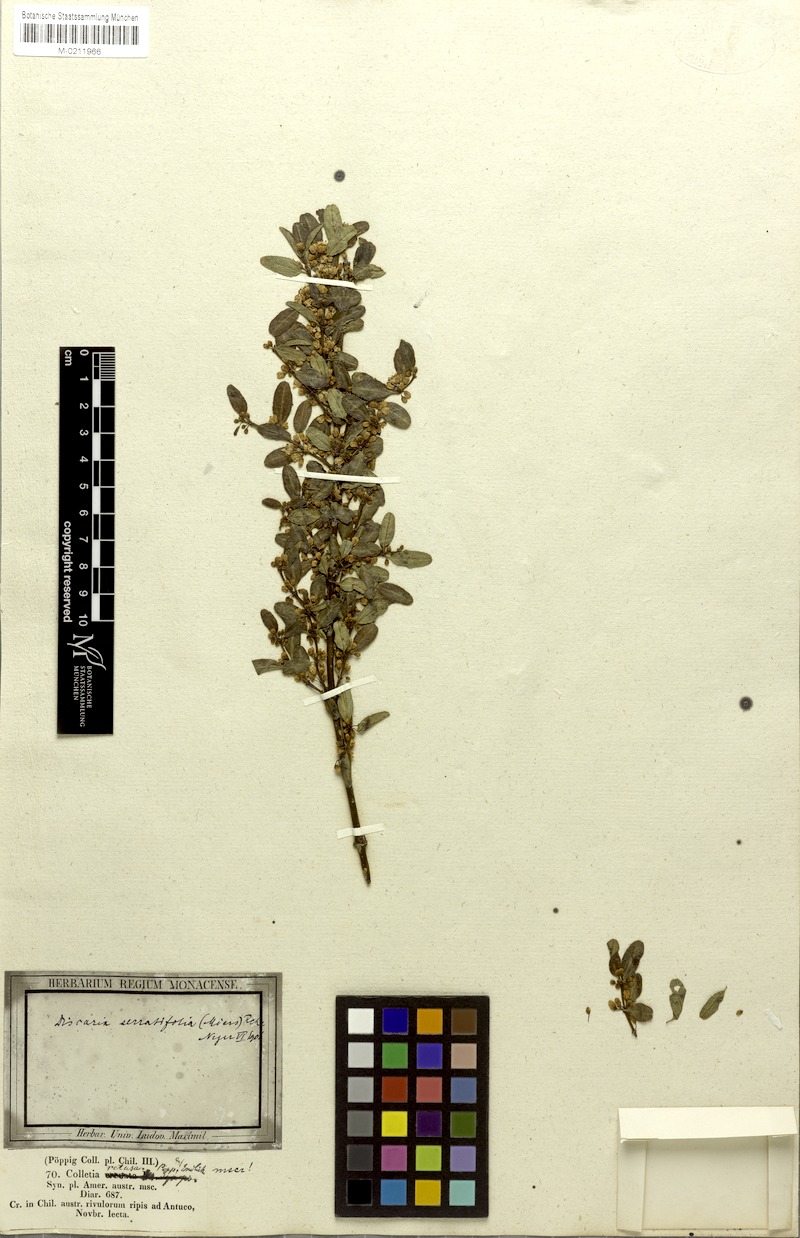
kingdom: Plantae
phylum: Tracheophyta
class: Magnoliopsida
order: Rosales
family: Rhamnaceae
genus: Discaria
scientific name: Discaria serratifolia
